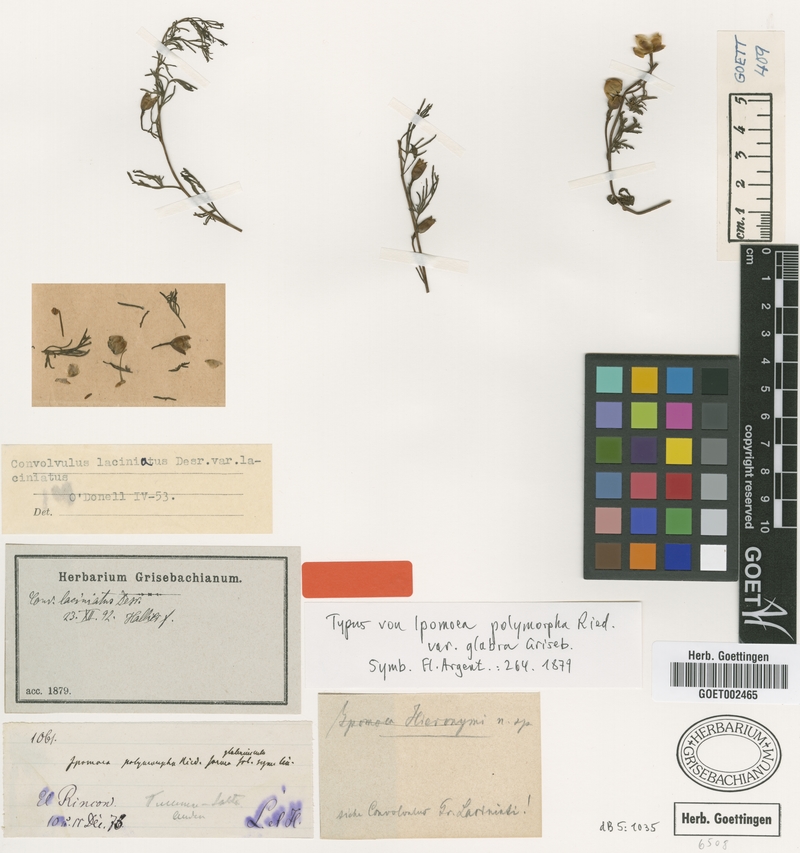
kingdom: Plantae
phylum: Tracheophyta
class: Magnoliopsida
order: Solanales
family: Convolvulaceae
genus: Convolvulus
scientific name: Convolvulus laciniatus
